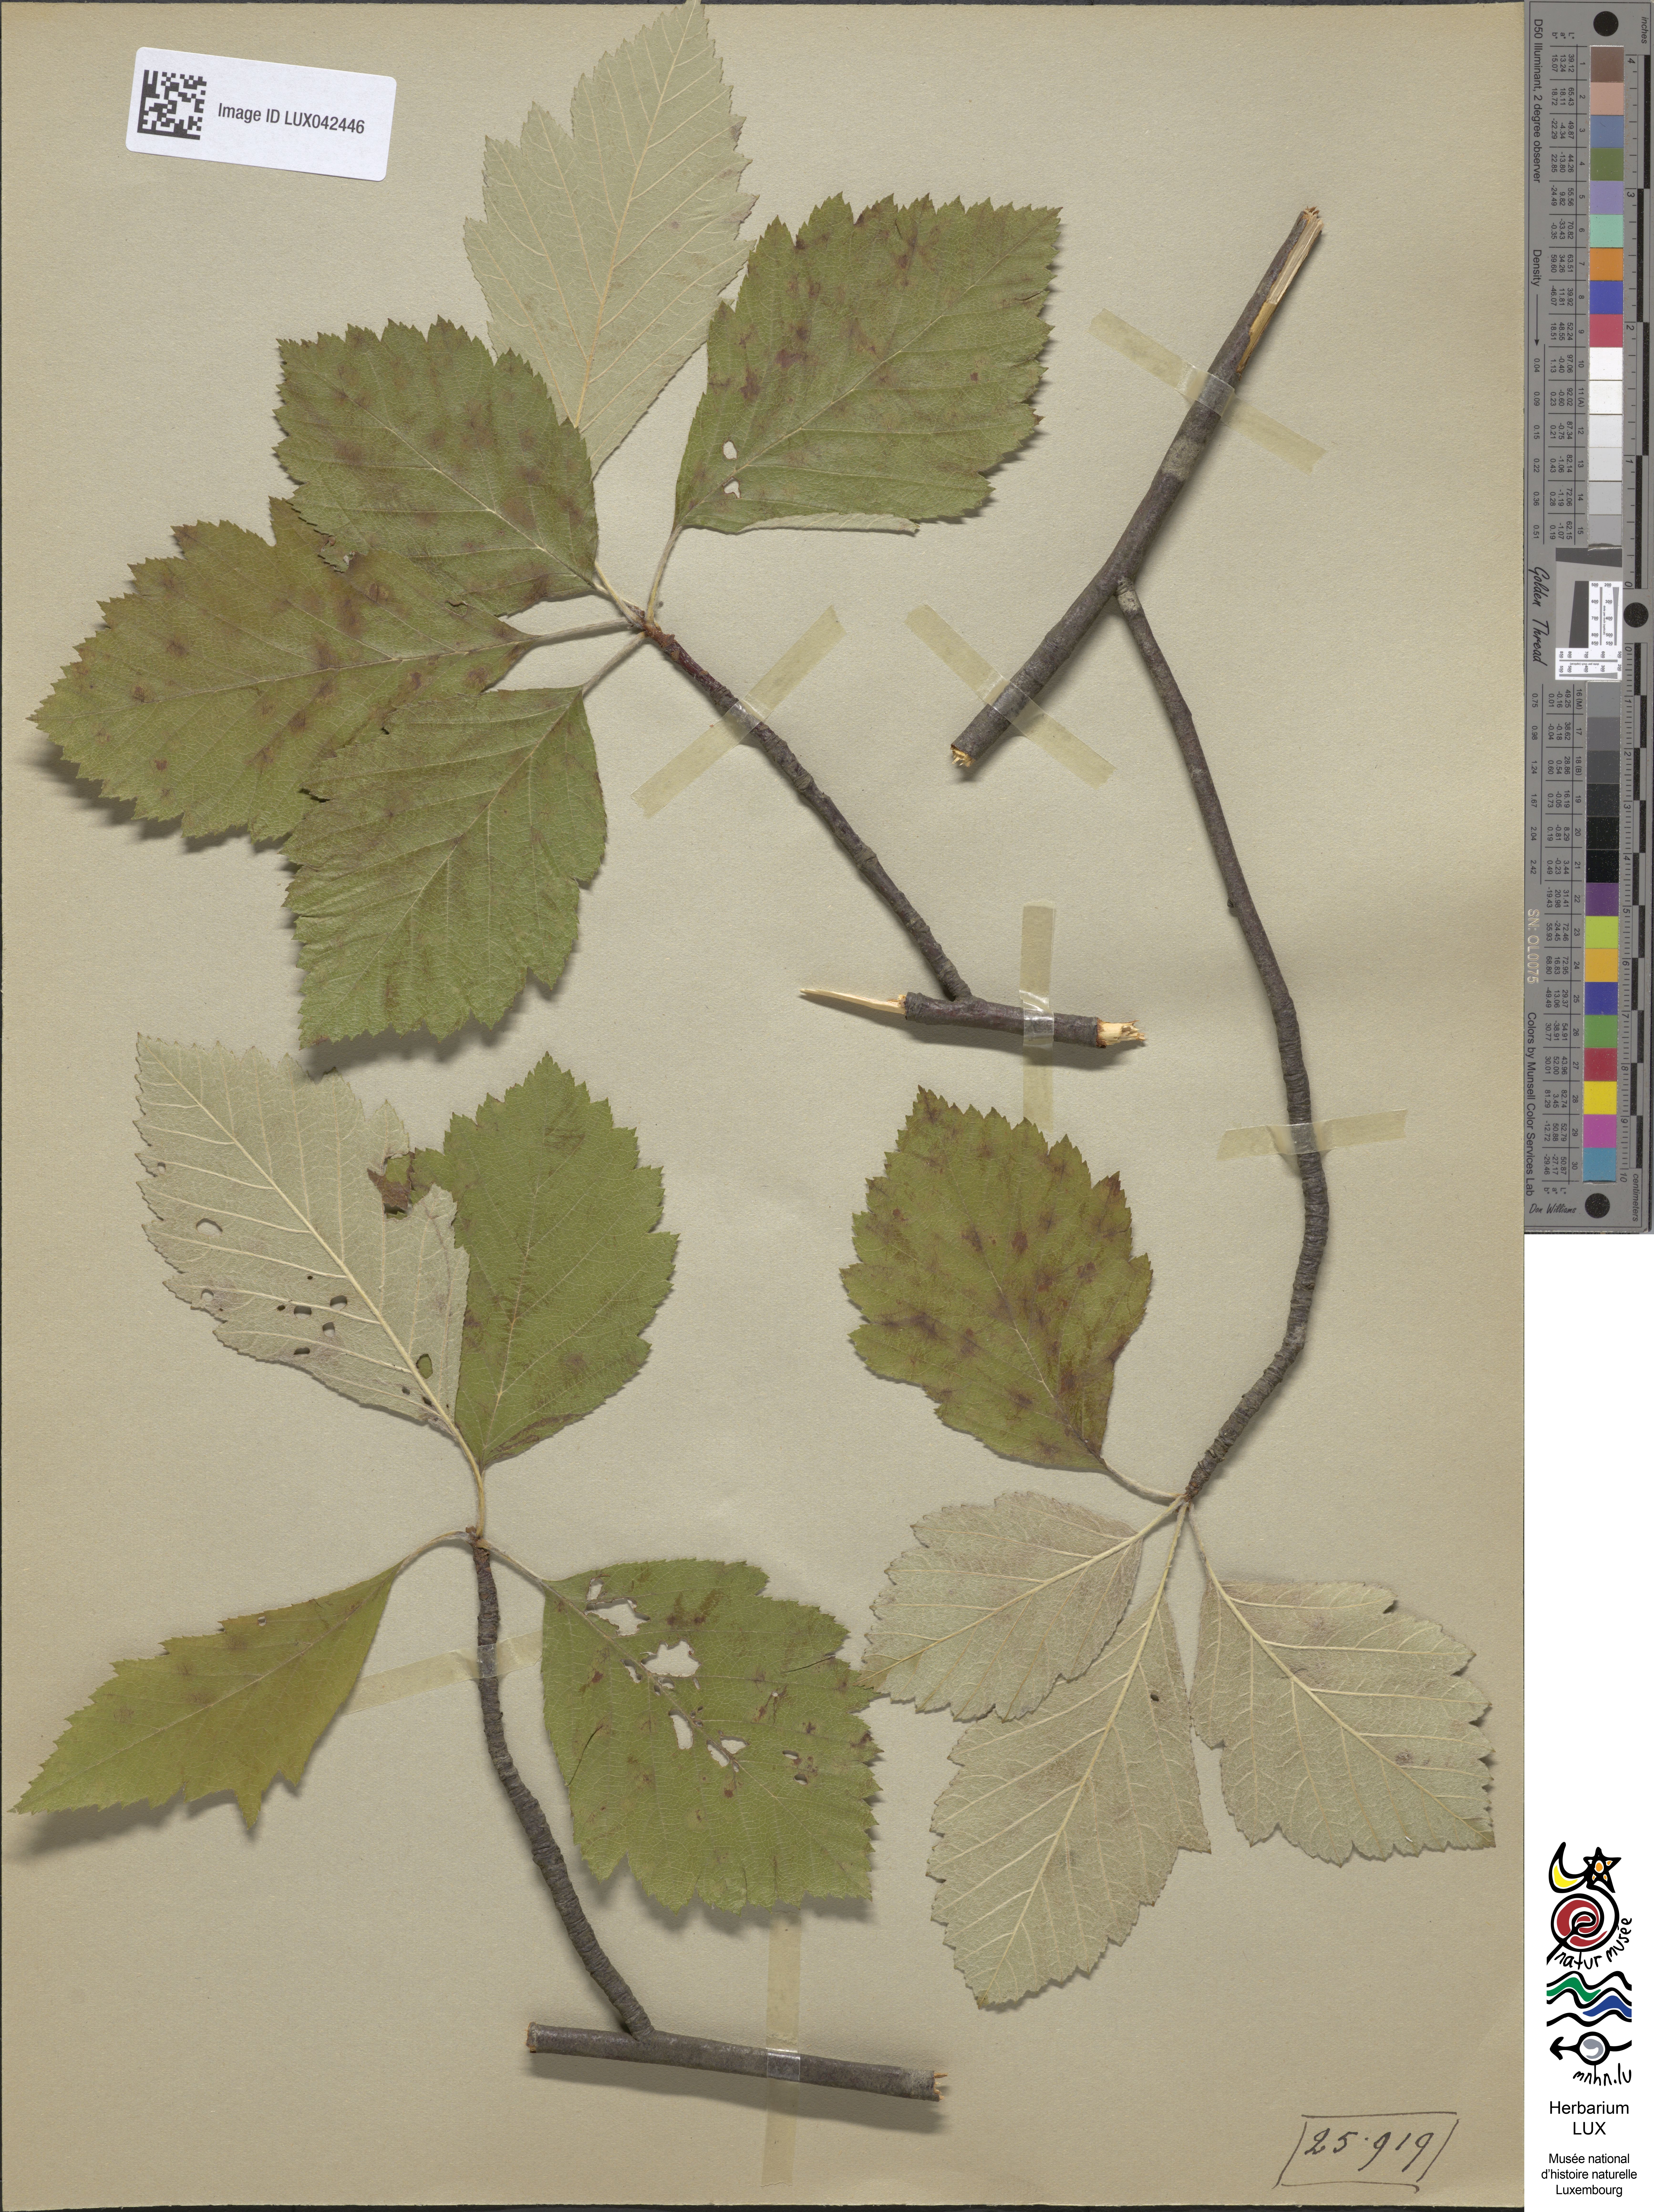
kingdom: Plantae
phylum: Tracheophyta
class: Magnoliopsida
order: Rosales
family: Rosaceae
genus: Karpatiosorbus
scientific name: Karpatiosorbus hybrida
